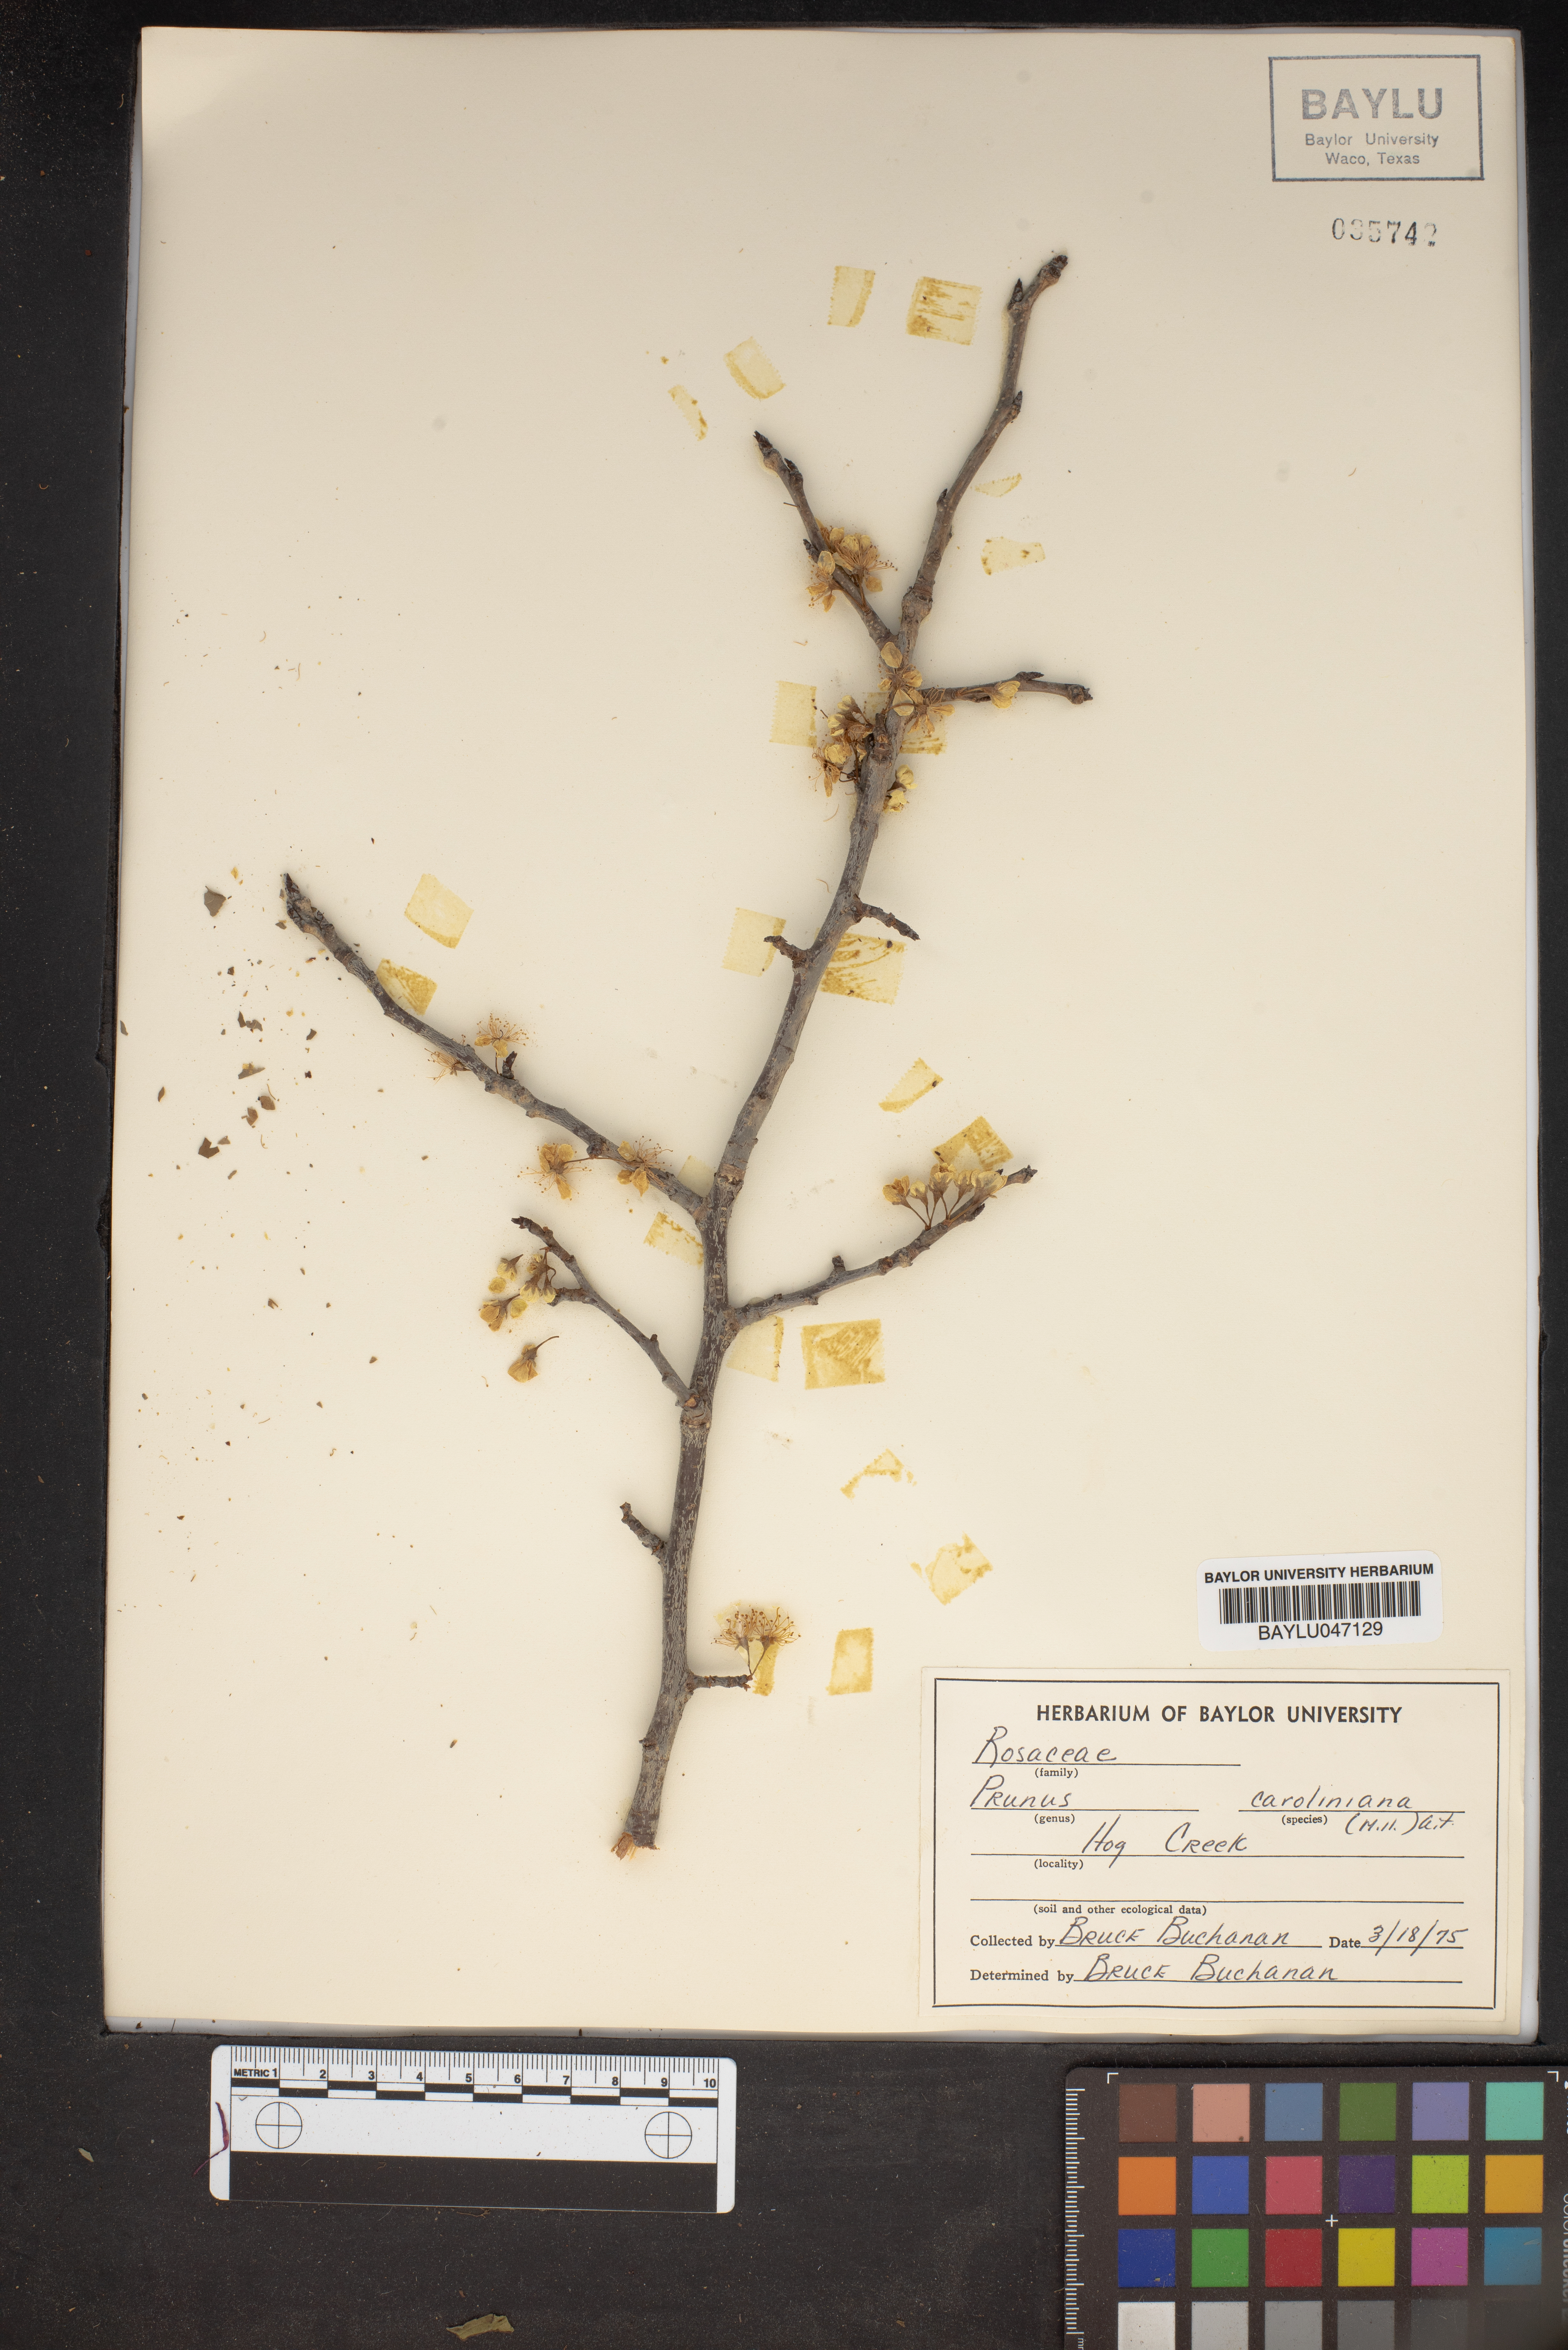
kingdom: Plantae
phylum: Tracheophyta
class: Magnoliopsida
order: Rosales
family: Rosaceae
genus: Prunus
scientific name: Prunus caroliniana
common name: Carolina laurel cherry
